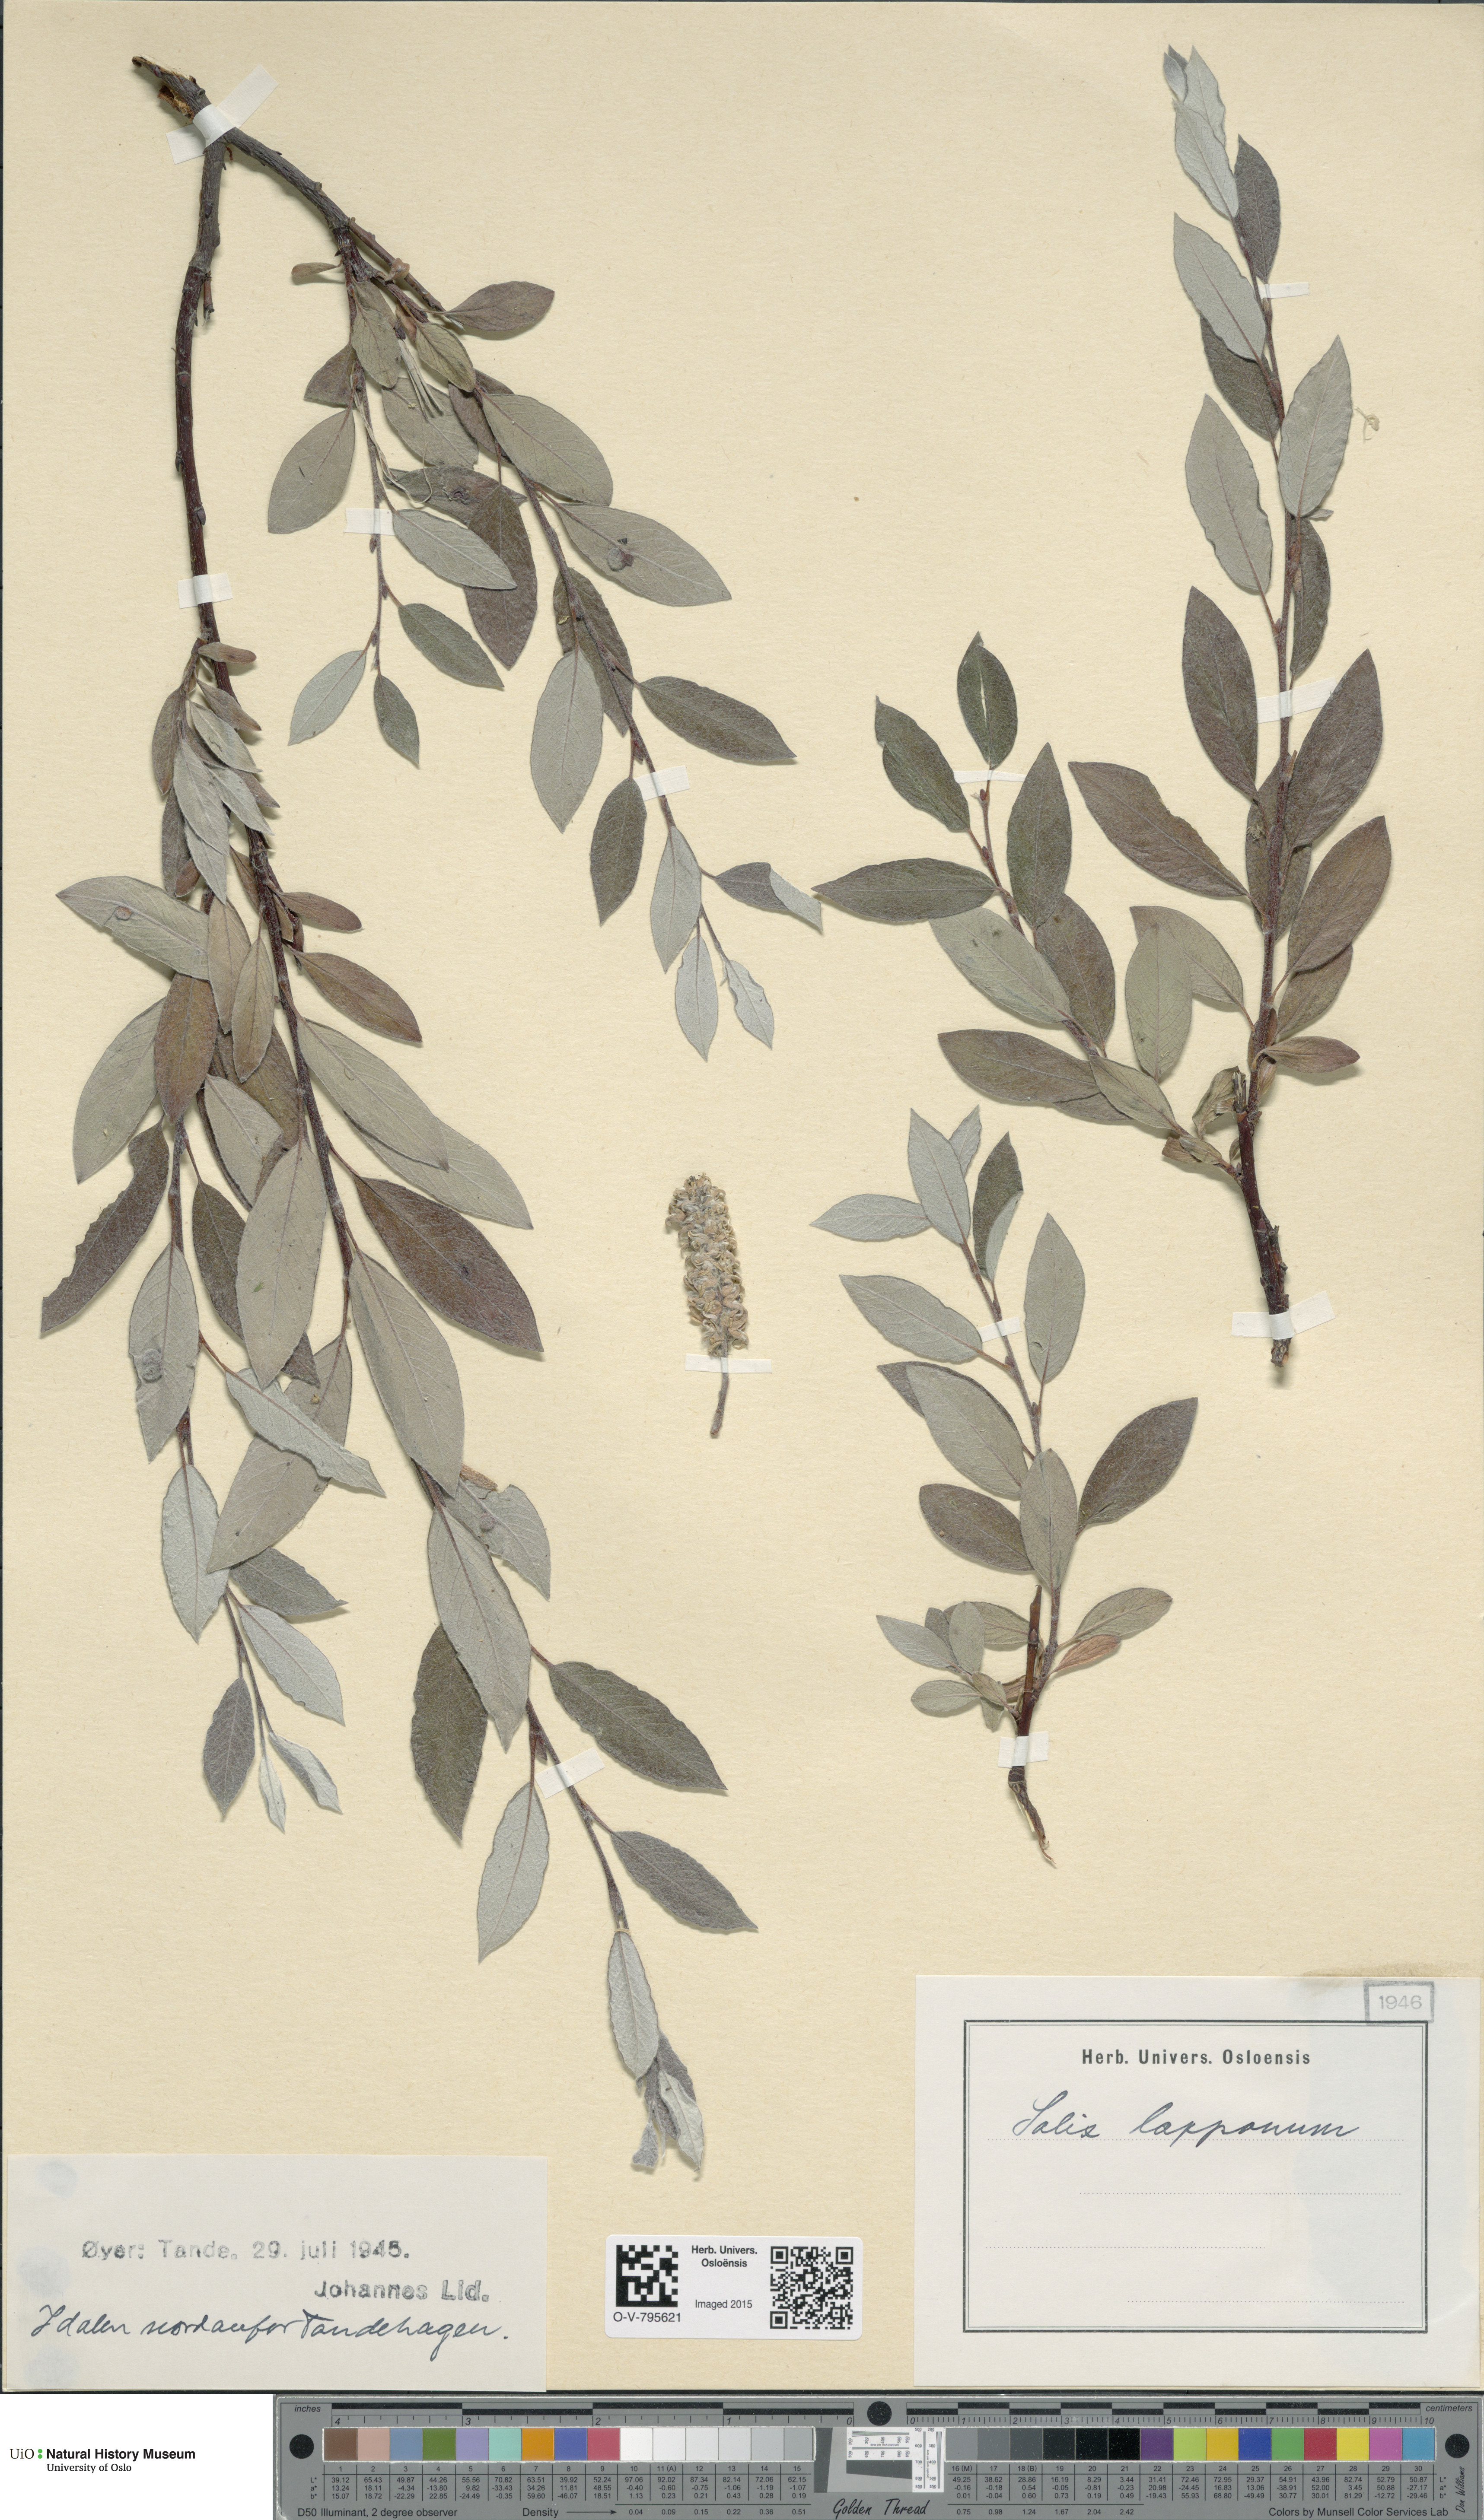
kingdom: Plantae
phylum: Tracheophyta
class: Magnoliopsida
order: Malpighiales
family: Salicaceae
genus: Salix
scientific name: Salix lapponum
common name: Downy willow
